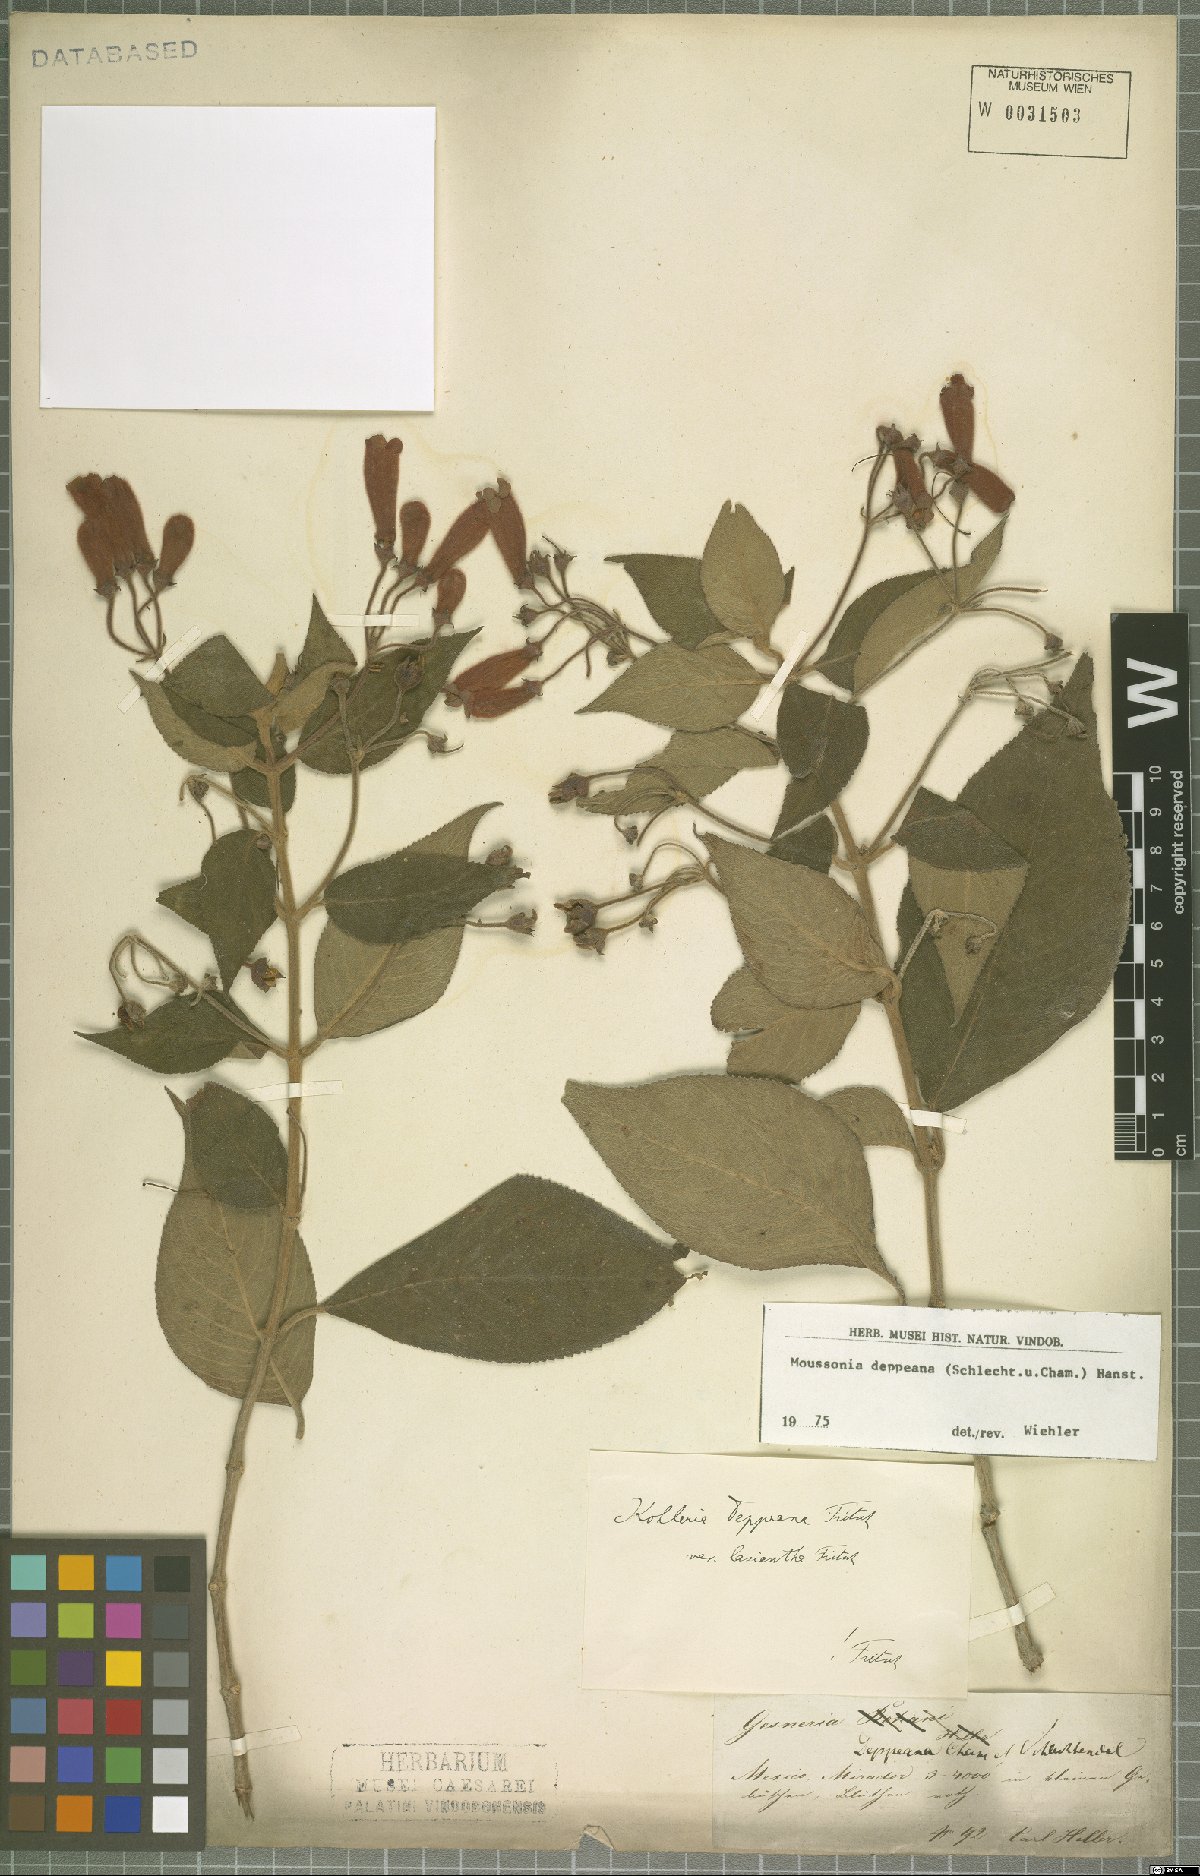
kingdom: Plantae
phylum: Tracheophyta
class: Magnoliopsida
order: Lamiales
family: Gesneriaceae
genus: Moussonia
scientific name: Moussonia deppeana
